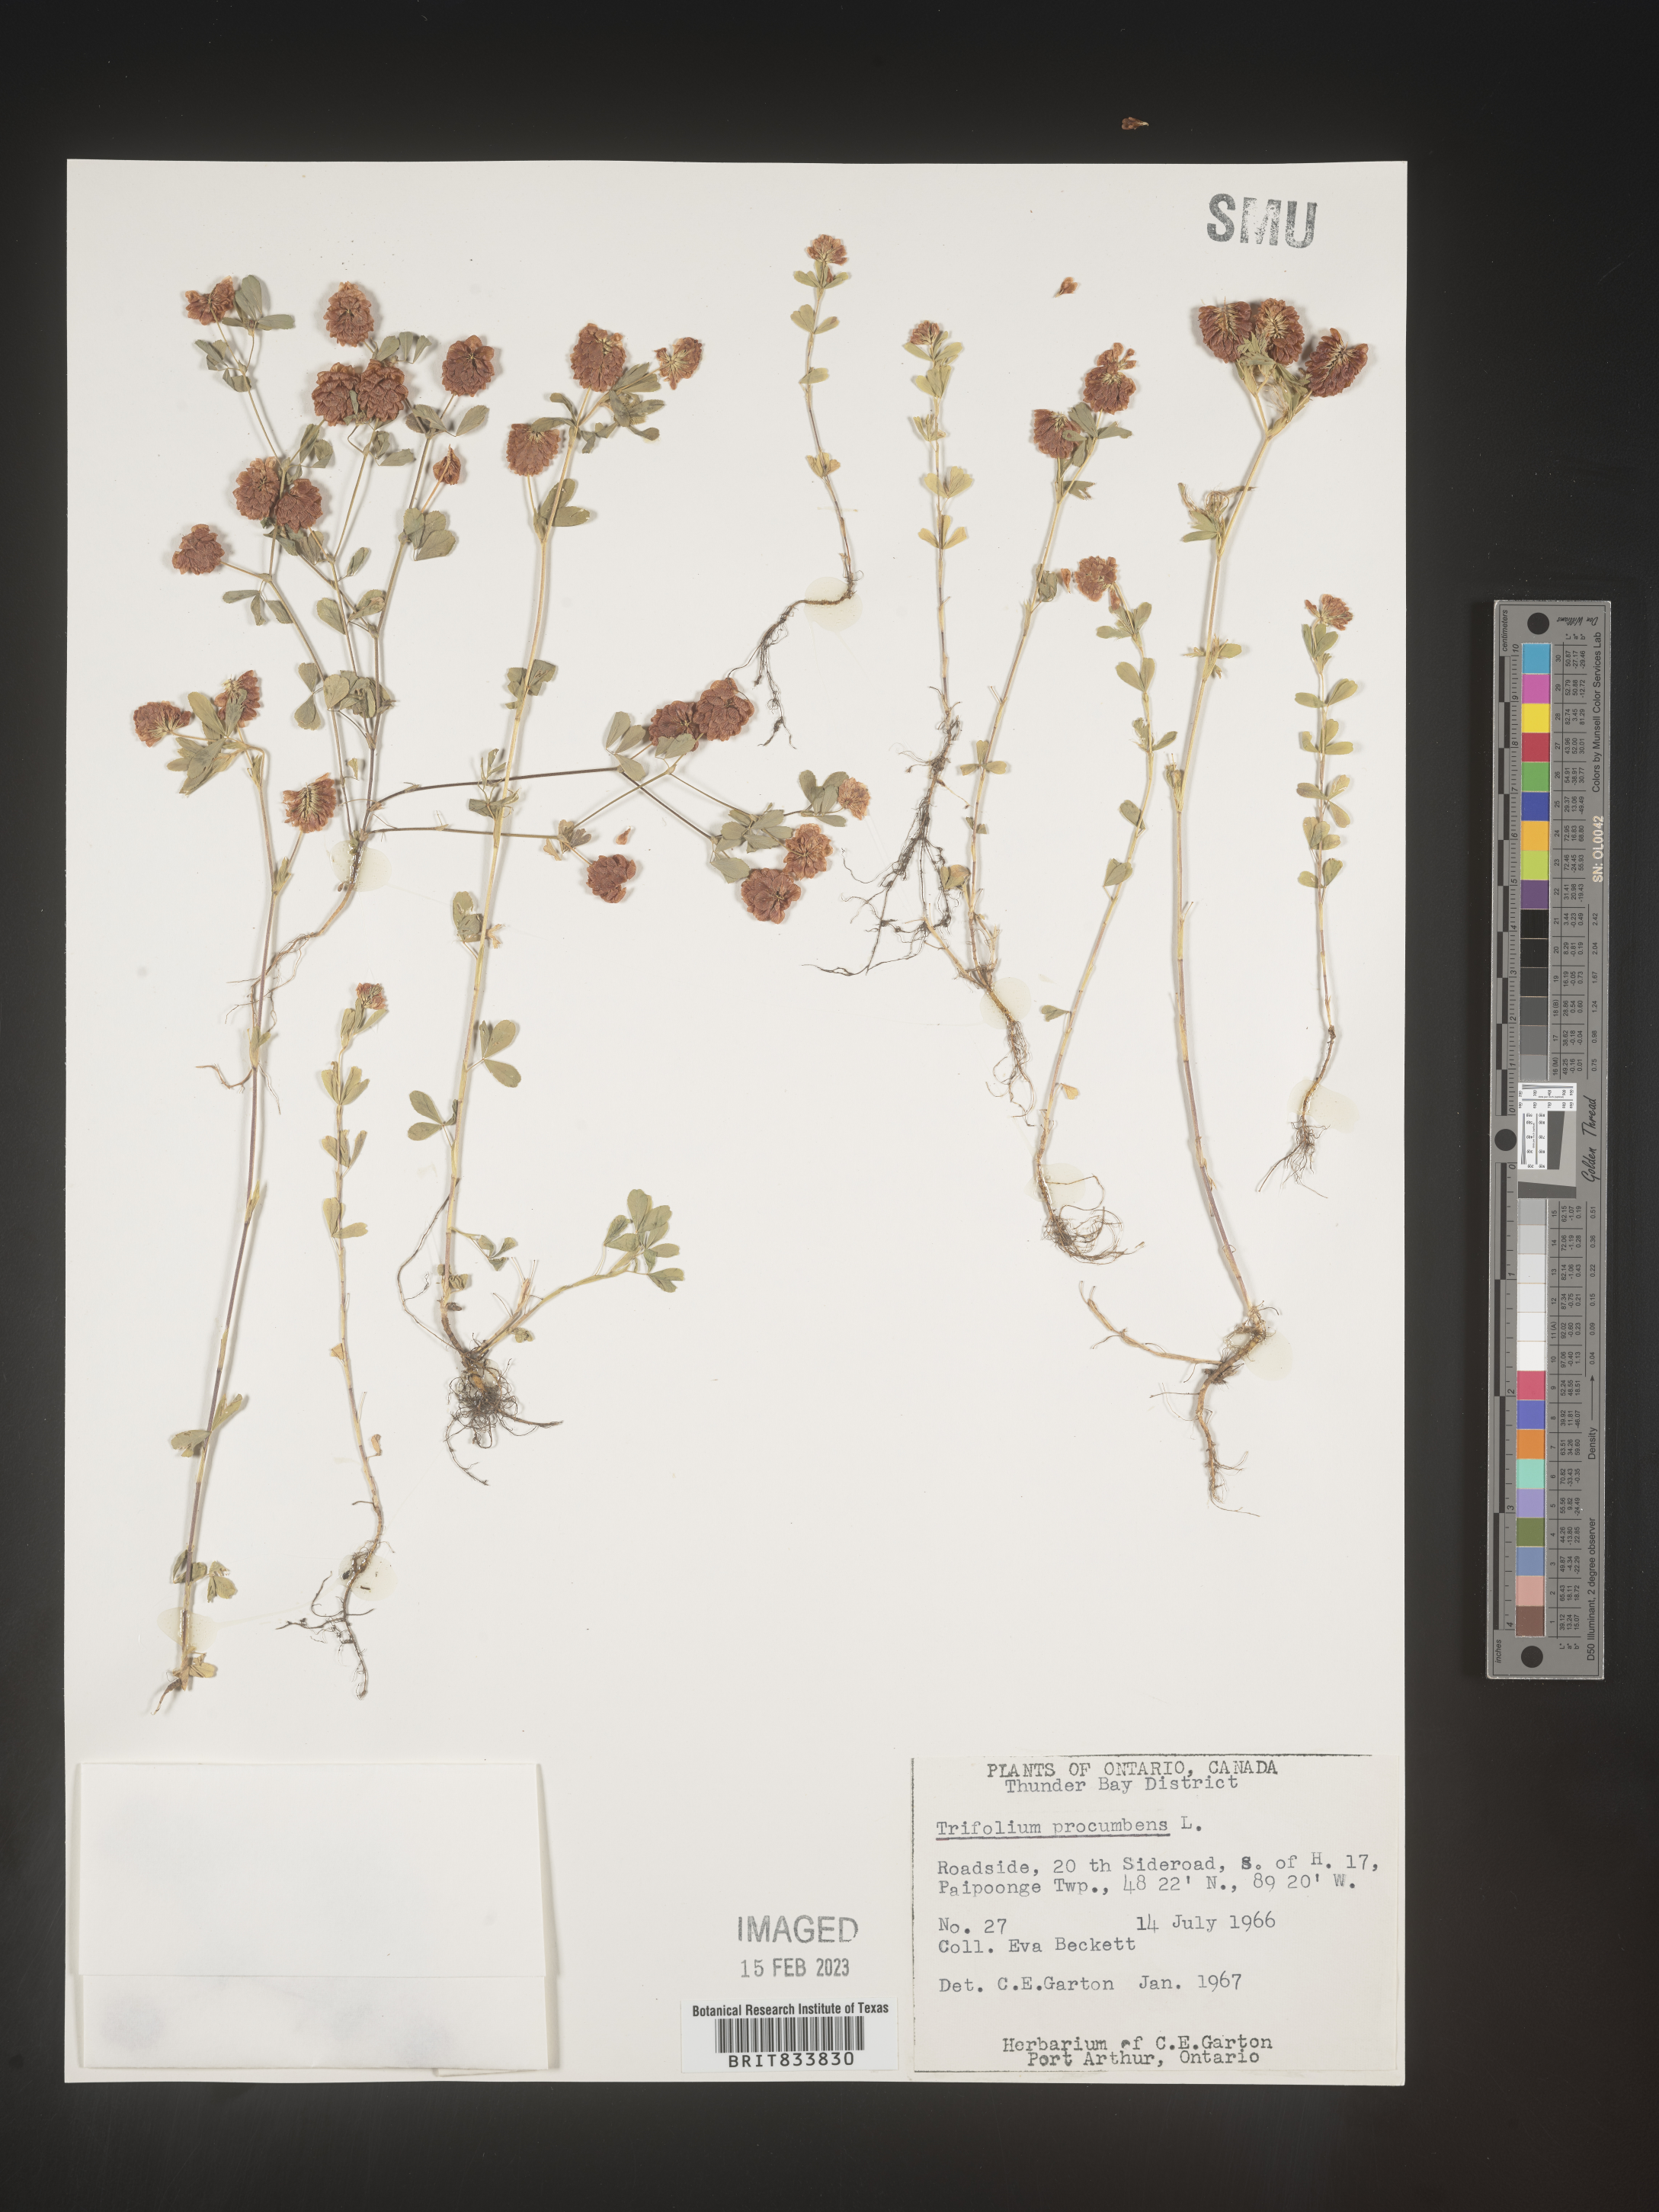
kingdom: Plantae
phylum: Tracheophyta
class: Magnoliopsida
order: Fabales
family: Fabaceae
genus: Trifolium
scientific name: Trifolium campestre
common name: Field clover
